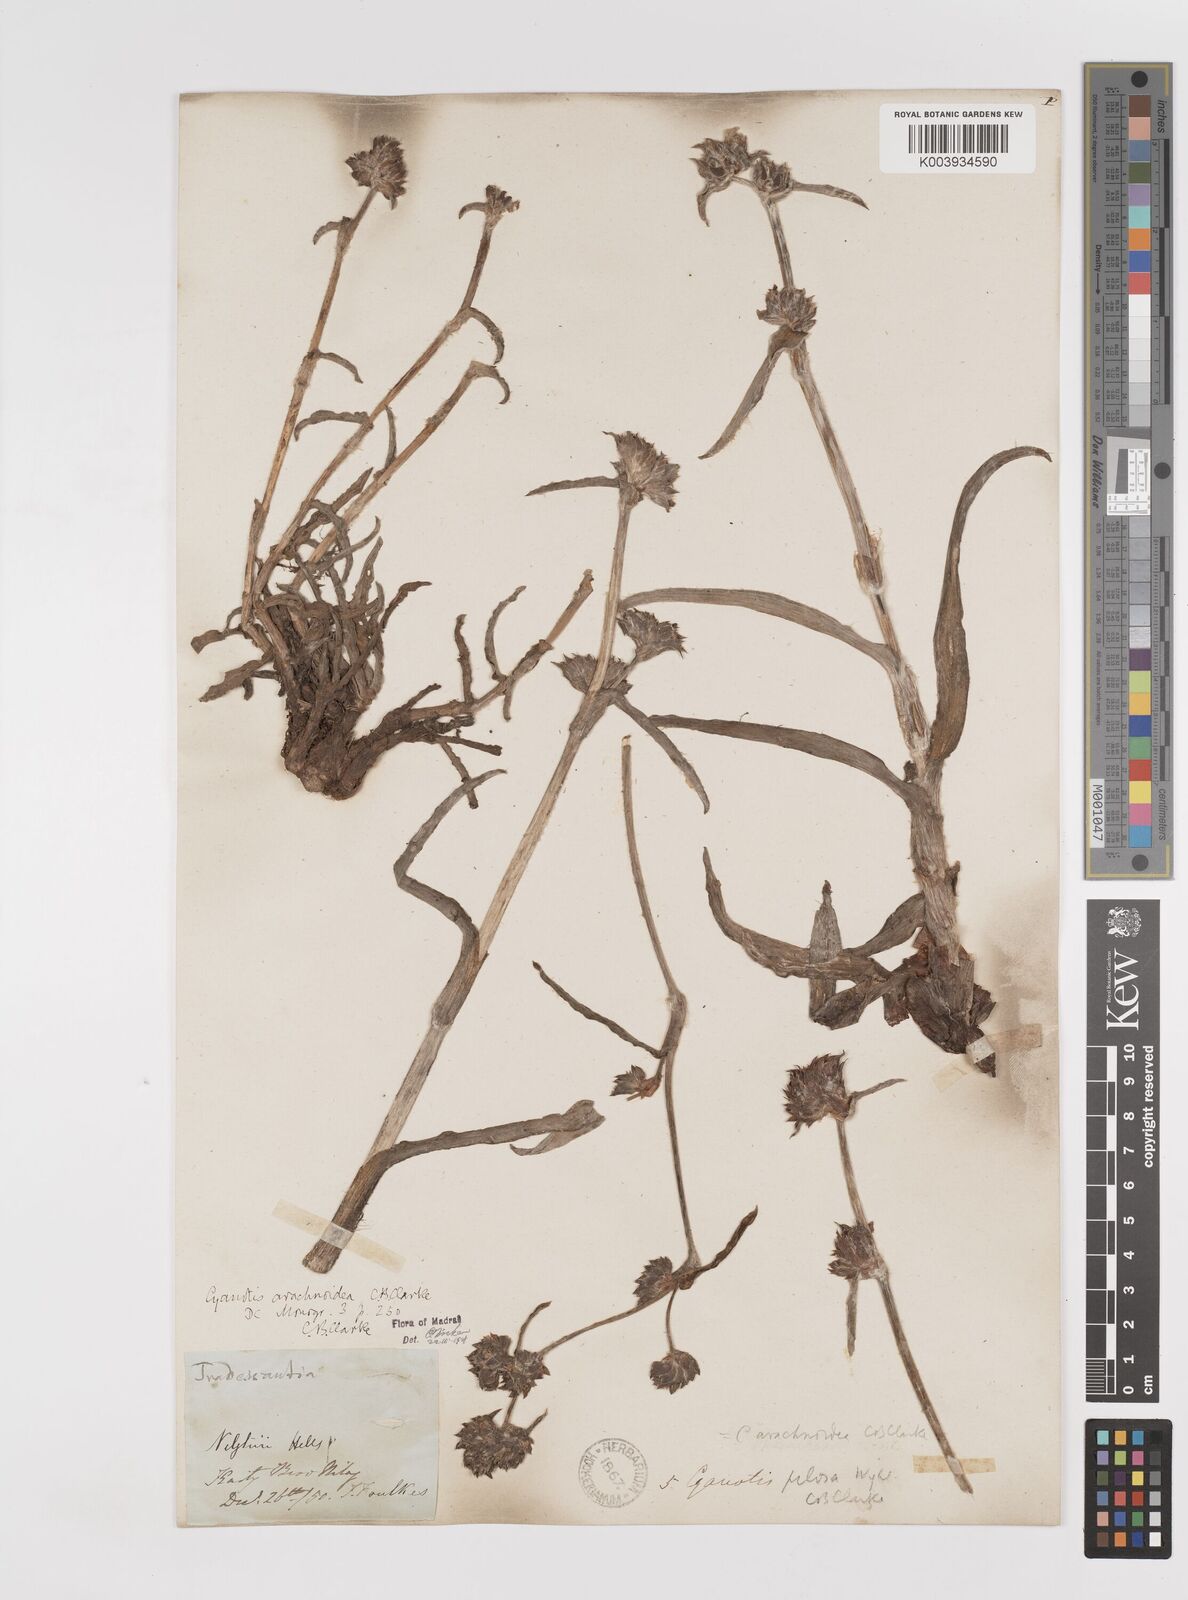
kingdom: Plantae
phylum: Tracheophyta
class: Liliopsida
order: Commelinales
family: Commelinaceae
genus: Cyanotis
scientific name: Cyanotis arachnoidea
